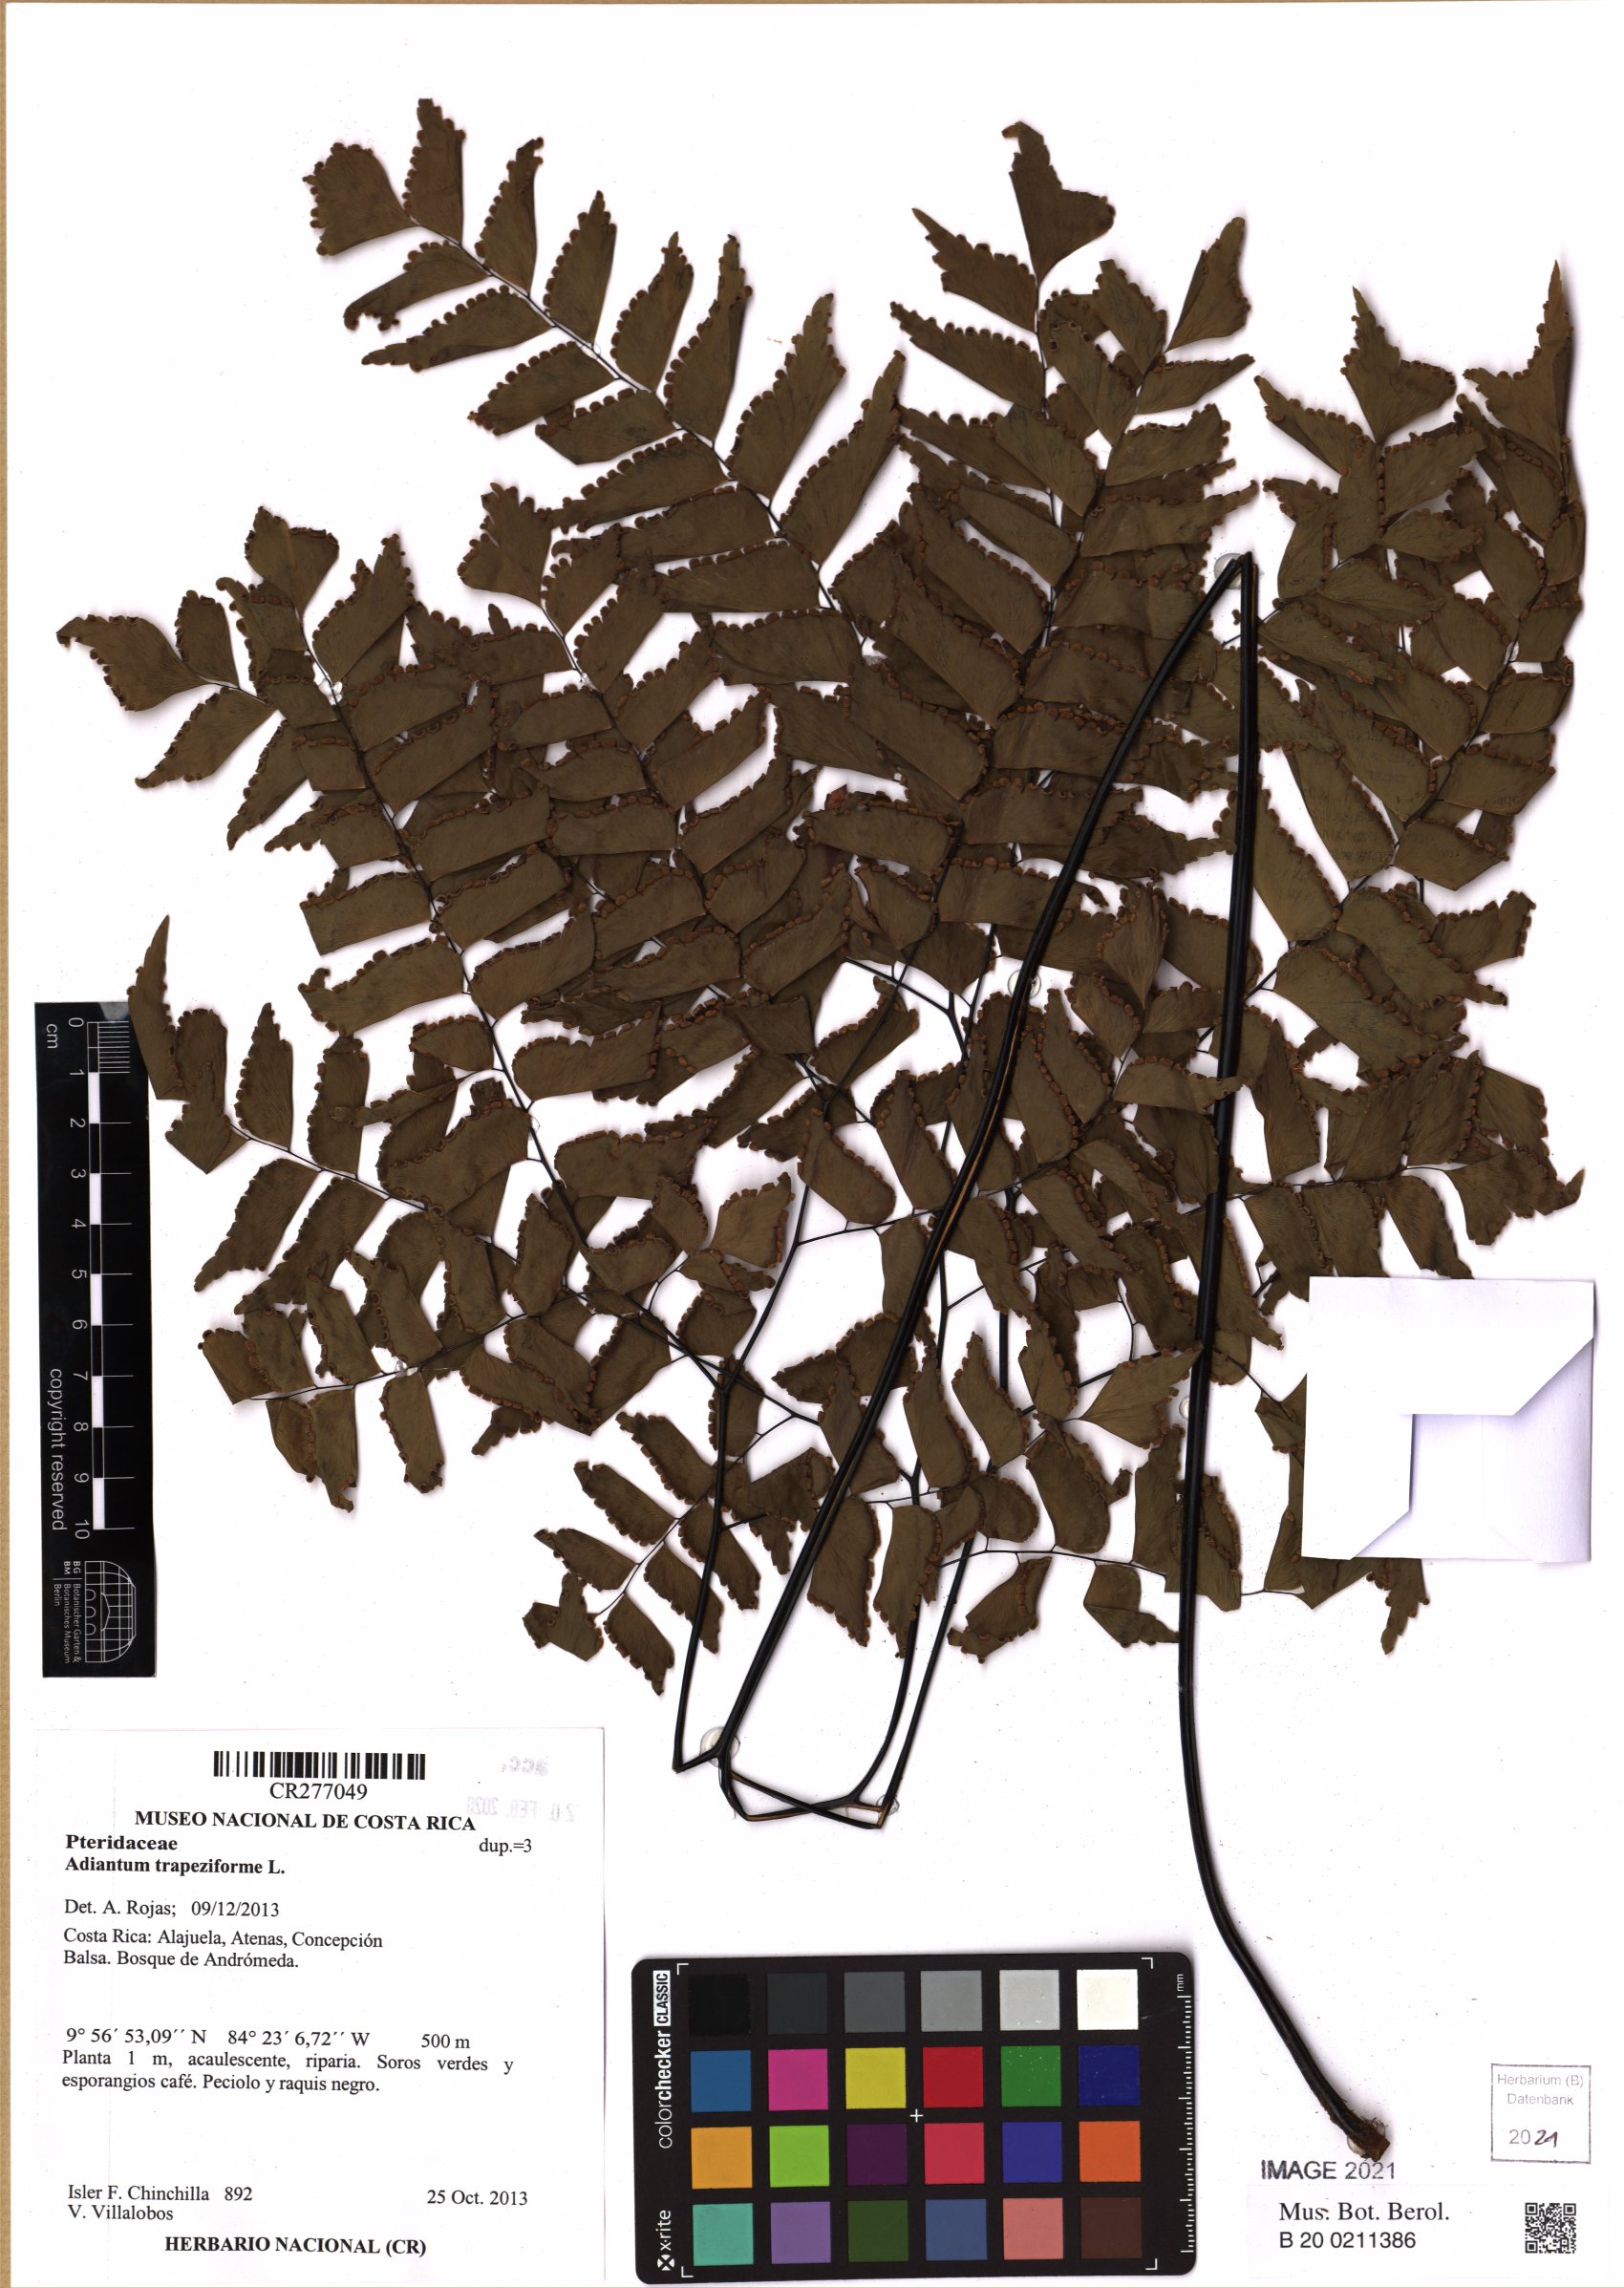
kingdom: Plantae
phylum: Tracheophyta
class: Polypodiopsida
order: Polypodiales
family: Pteridaceae
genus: Adiantum
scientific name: Adiantum trapeziforme
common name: Diamond maidenhair
